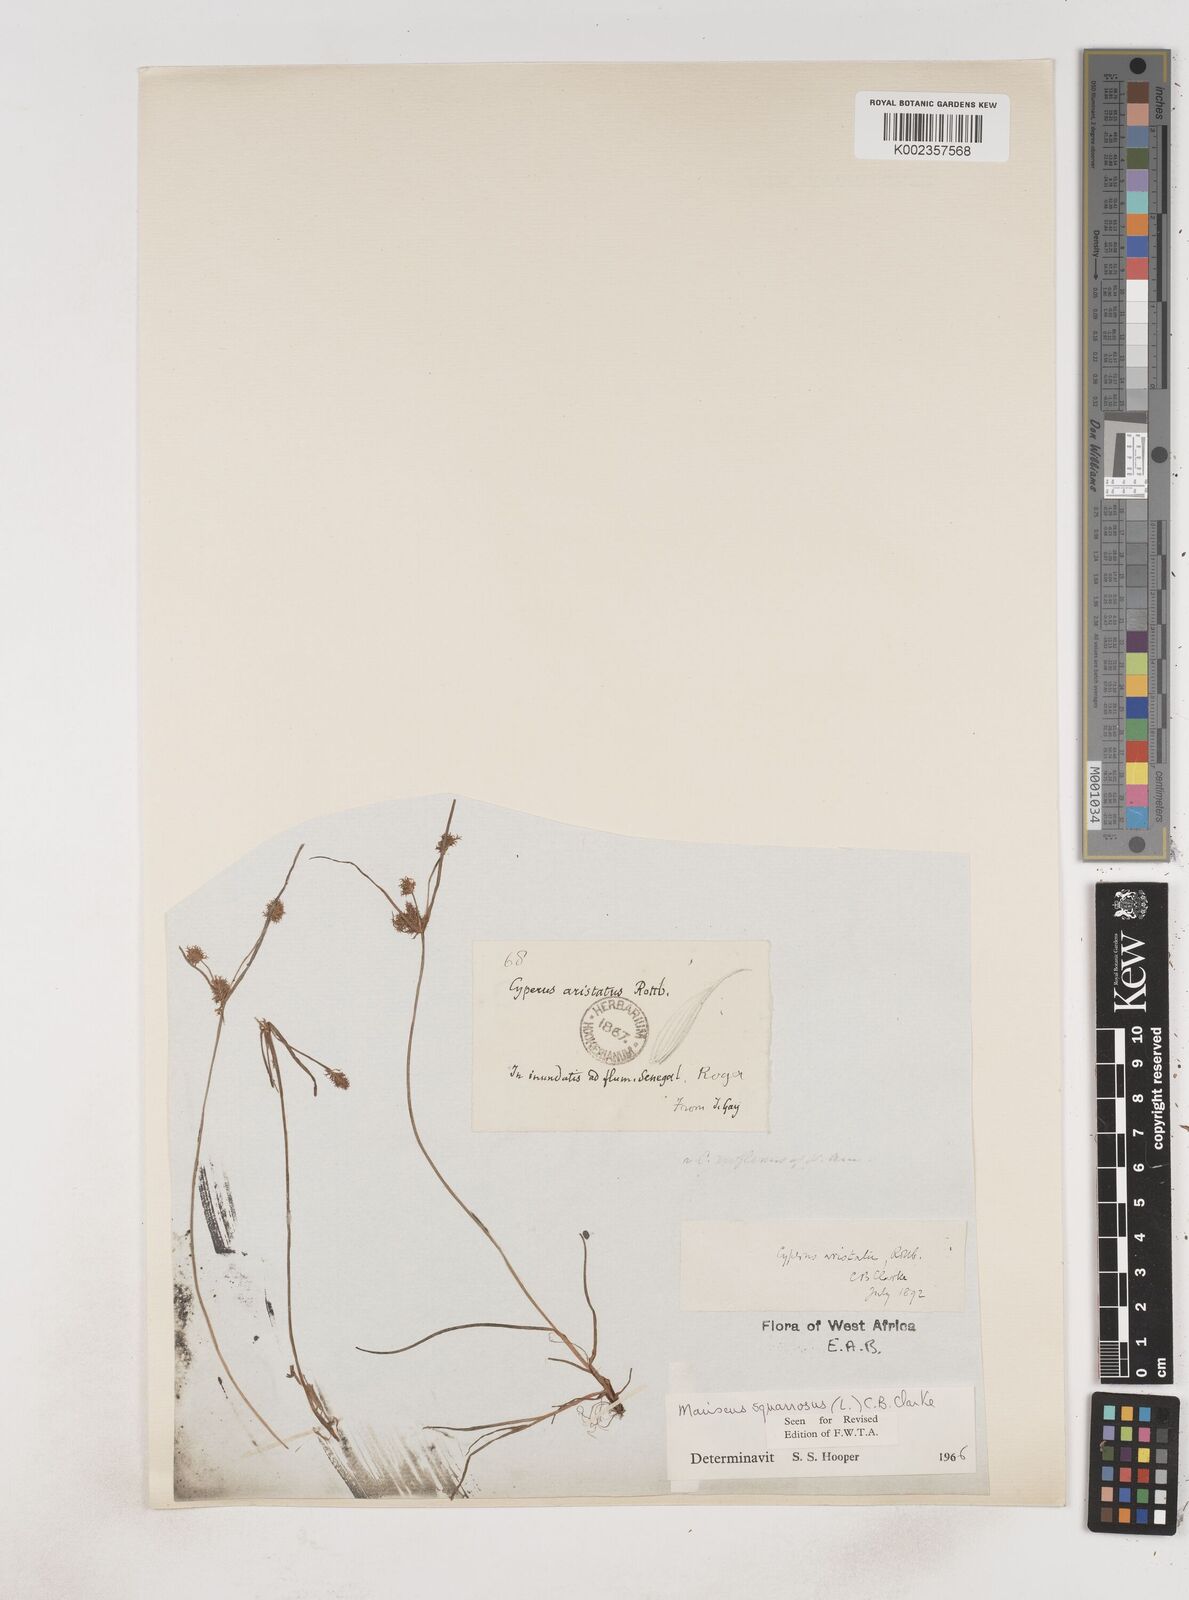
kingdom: Plantae
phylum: Tracheophyta
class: Liliopsida
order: Poales
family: Cyperaceae
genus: Cyperus
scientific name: Cyperus squarrosus
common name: Awned cyperus
